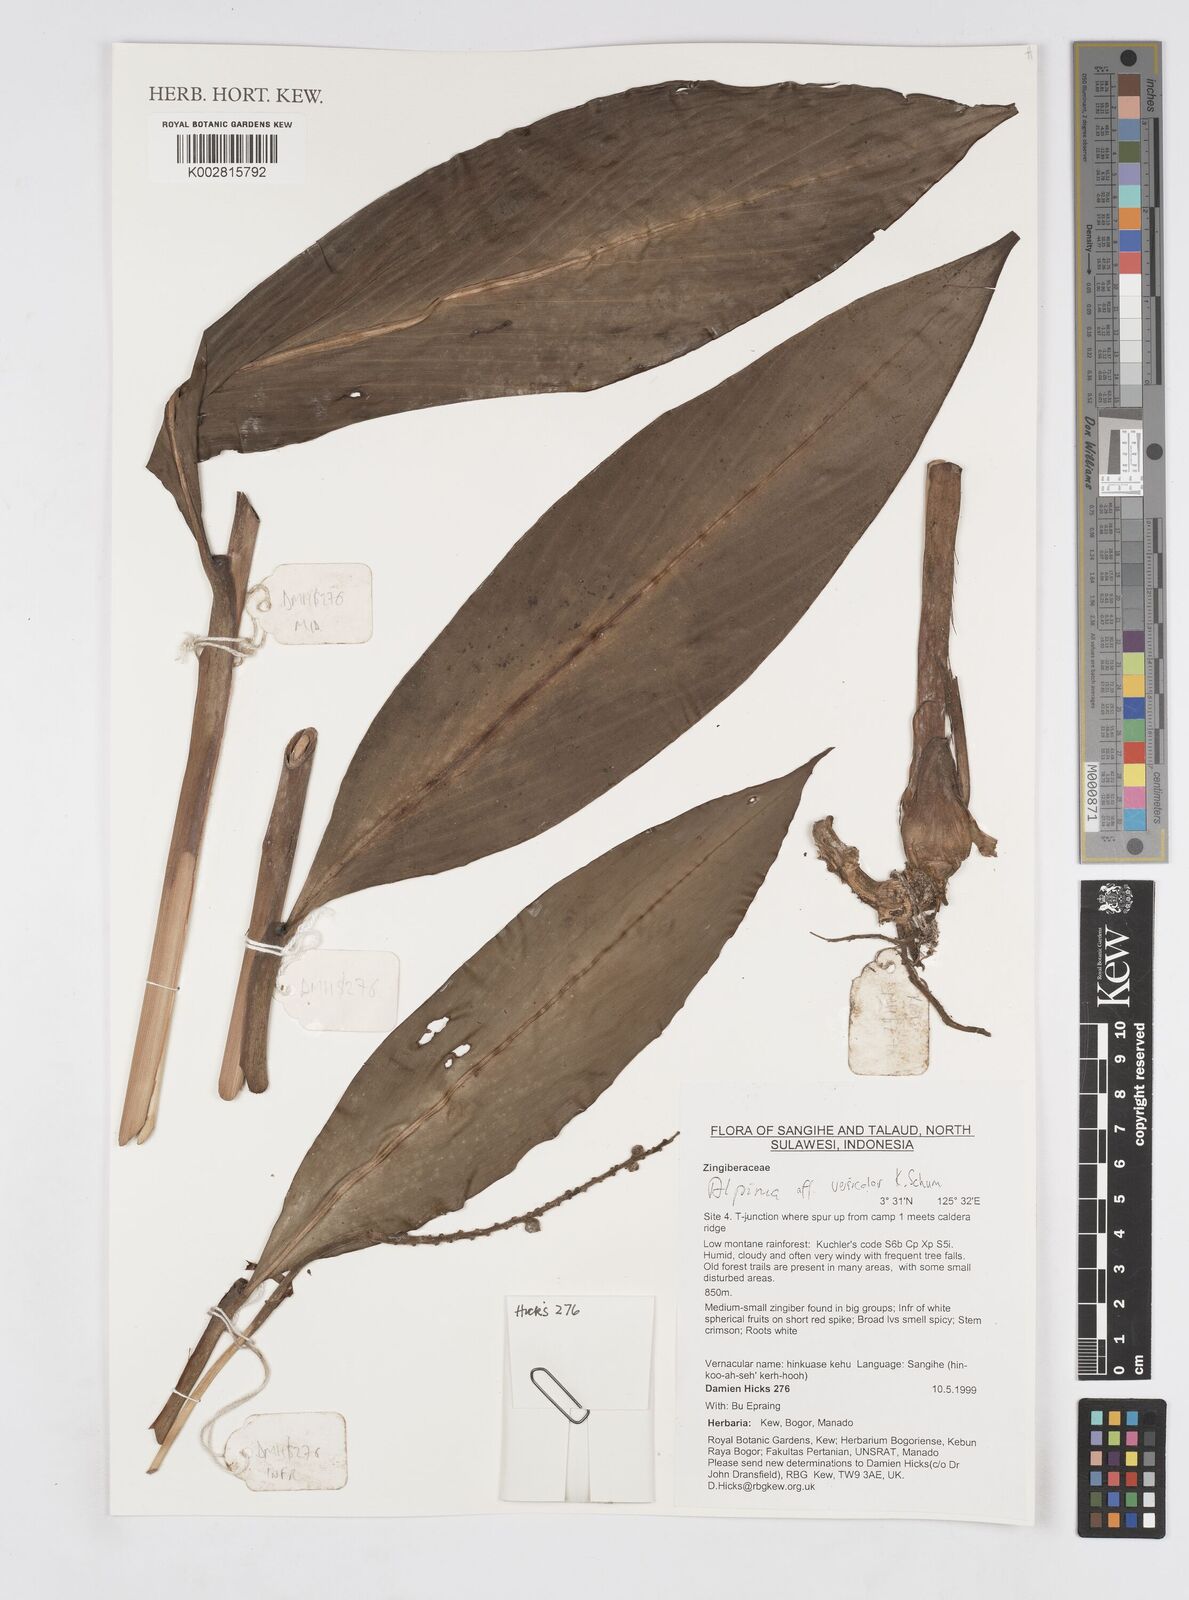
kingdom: Plantae
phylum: Tracheophyta
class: Liliopsida
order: Zingiberales
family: Zingiberaceae
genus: Alpinia
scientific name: Alpinia versicolor
